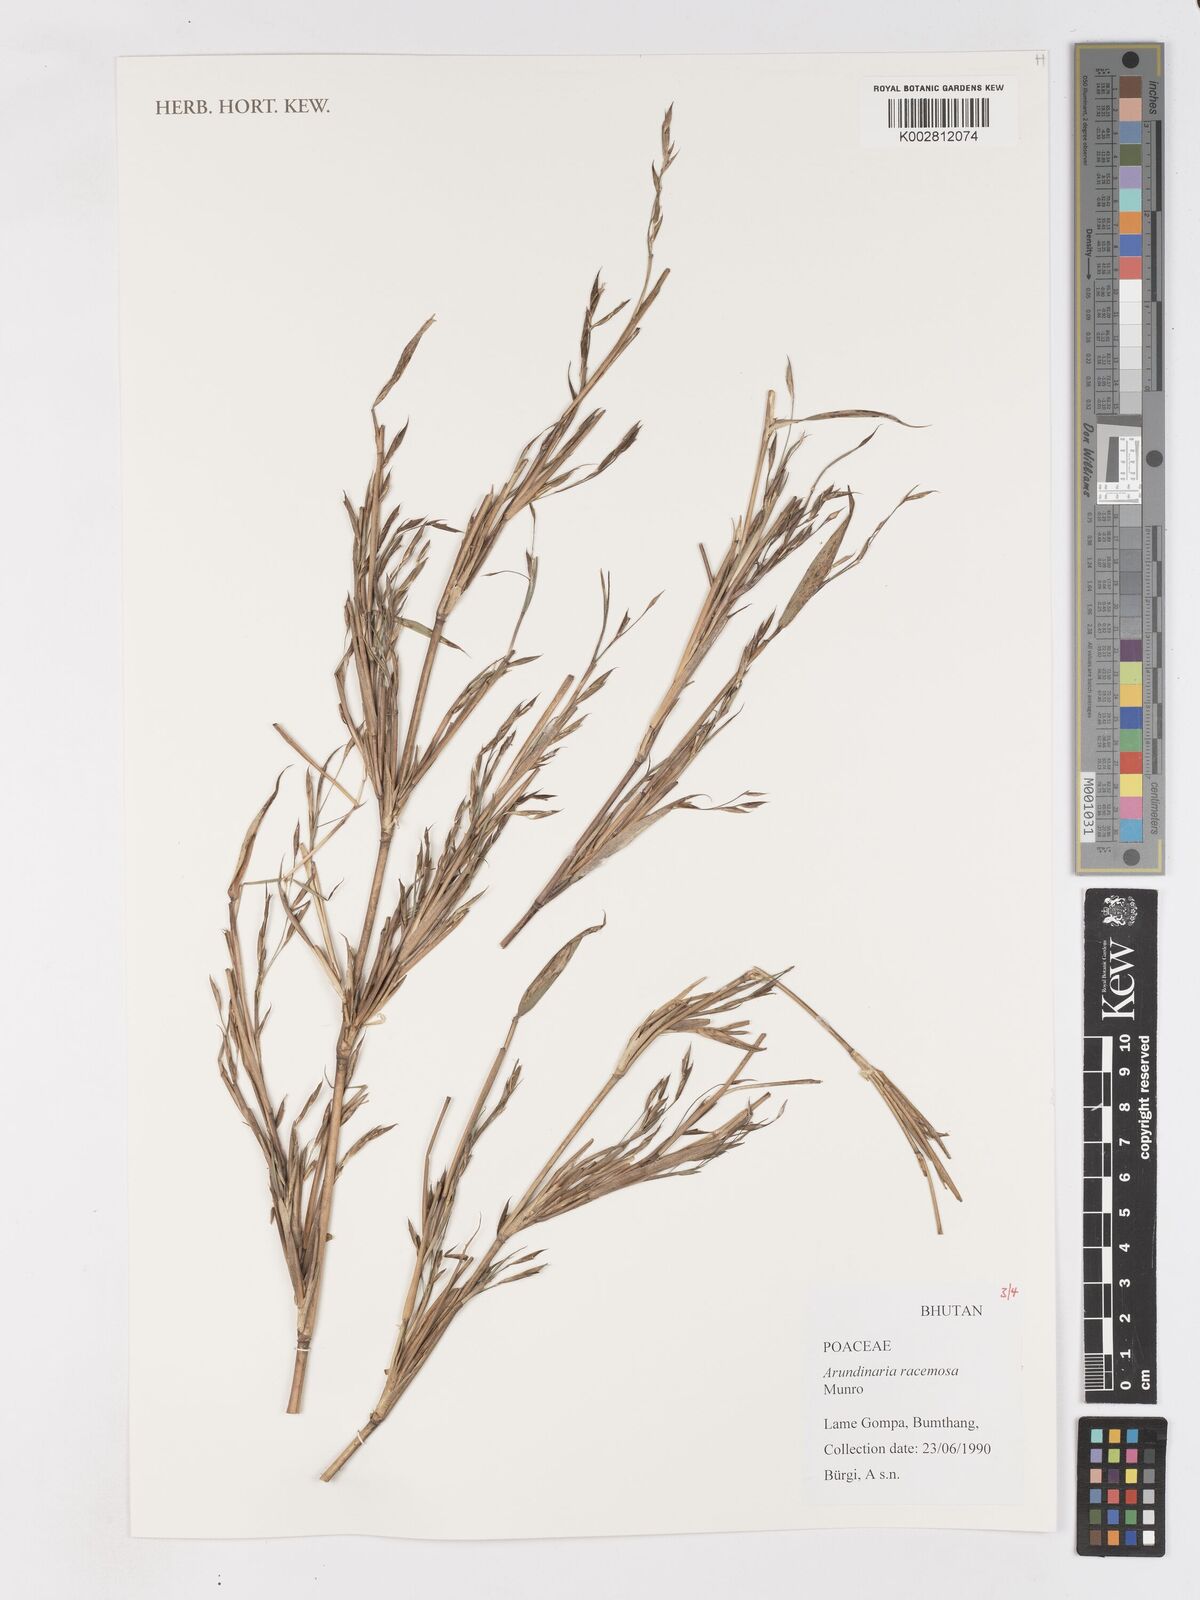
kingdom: Plantae
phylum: Tracheophyta
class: Liliopsida
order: Poales
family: Poaceae
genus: Sarocalamus
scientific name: Sarocalamus racemosus
